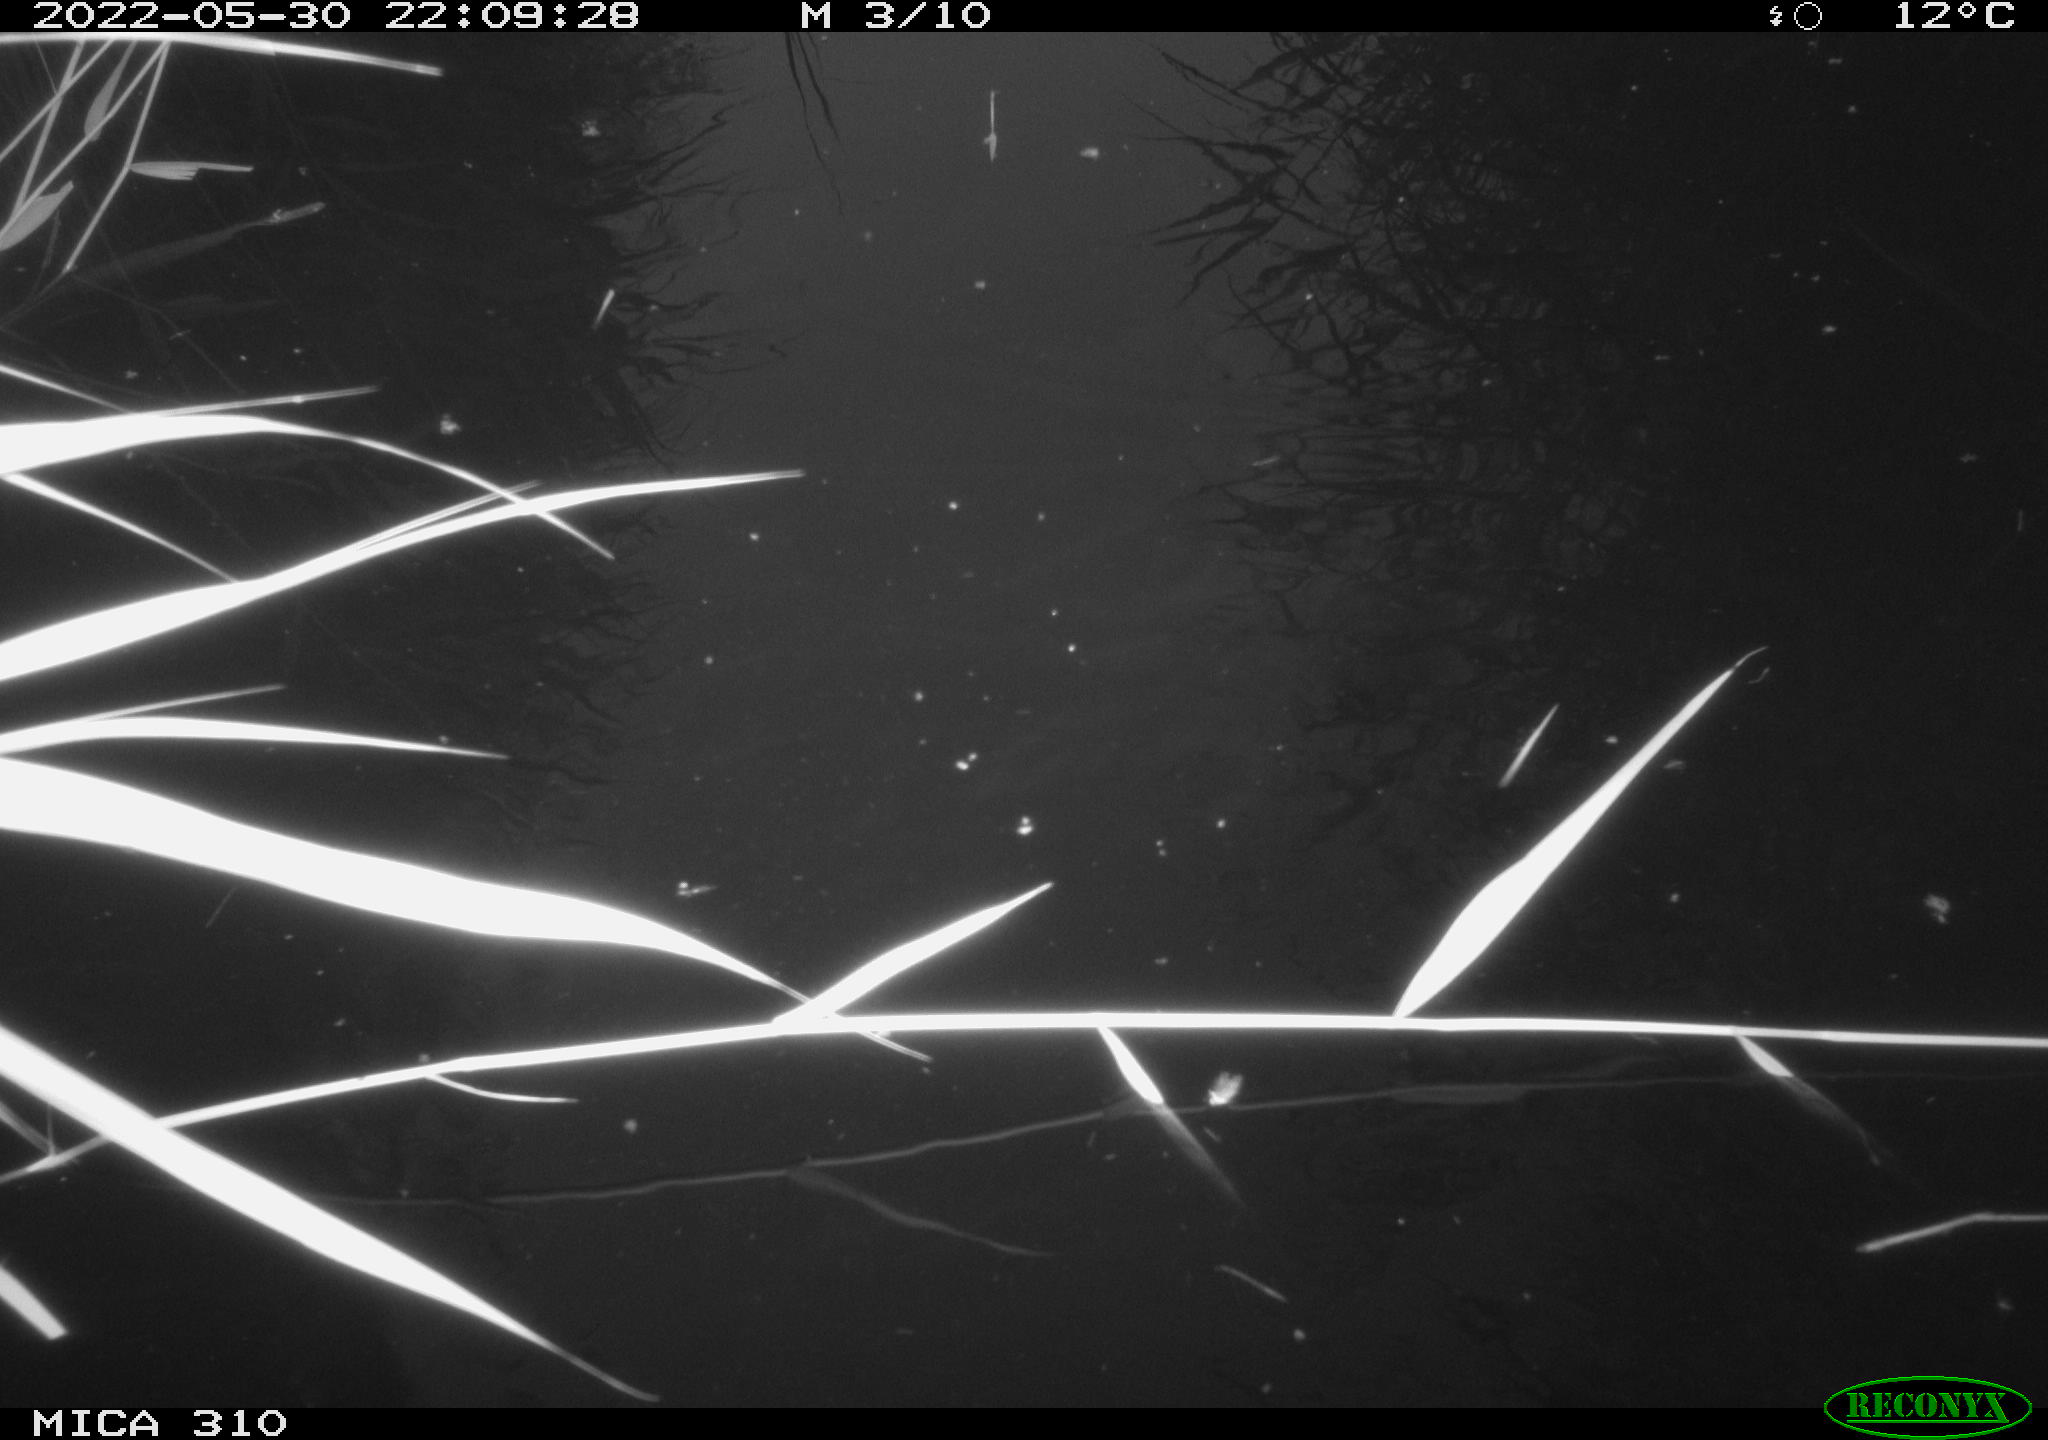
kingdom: Animalia
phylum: Chordata
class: Aves
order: Anseriformes
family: Anatidae
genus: Anas
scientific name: Anas platyrhynchos
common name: Mallard
